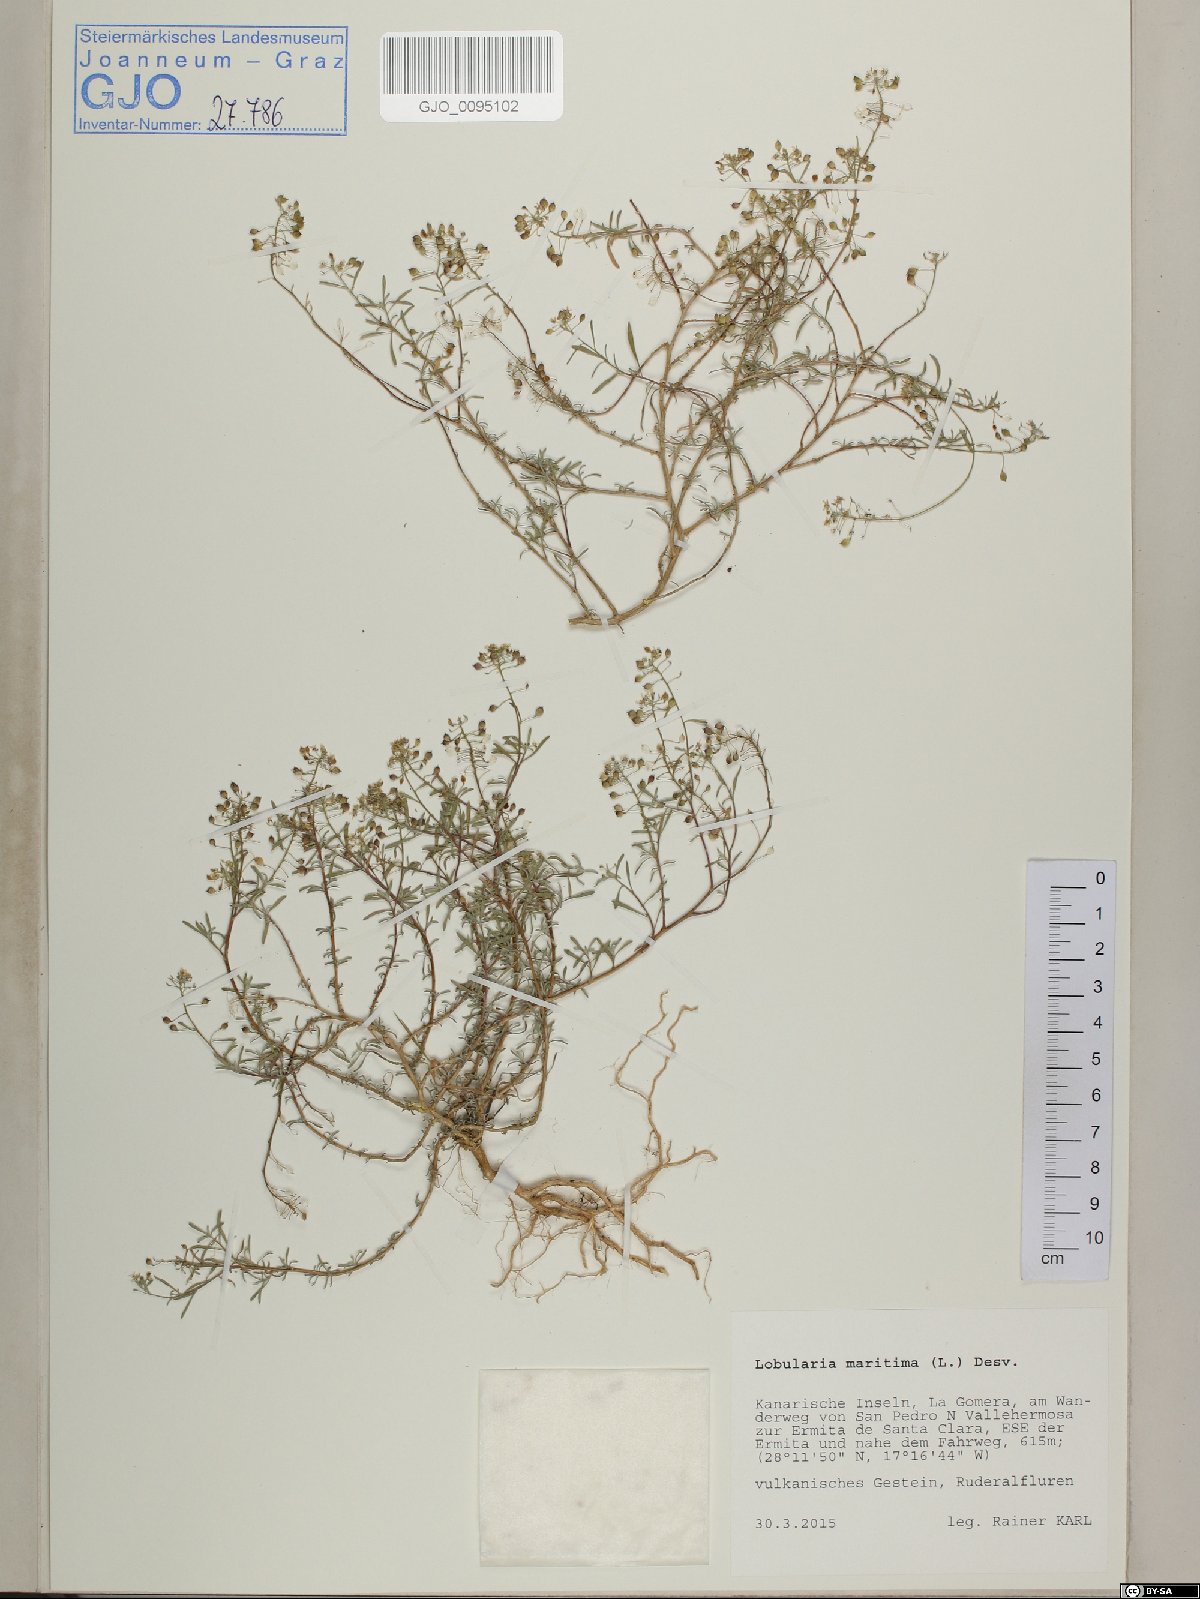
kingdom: Plantae
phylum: Tracheophyta
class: Magnoliopsida
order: Brassicales
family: Brassicaceae
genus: Lobularia
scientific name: Lobularia maritima
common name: Sweet alison
